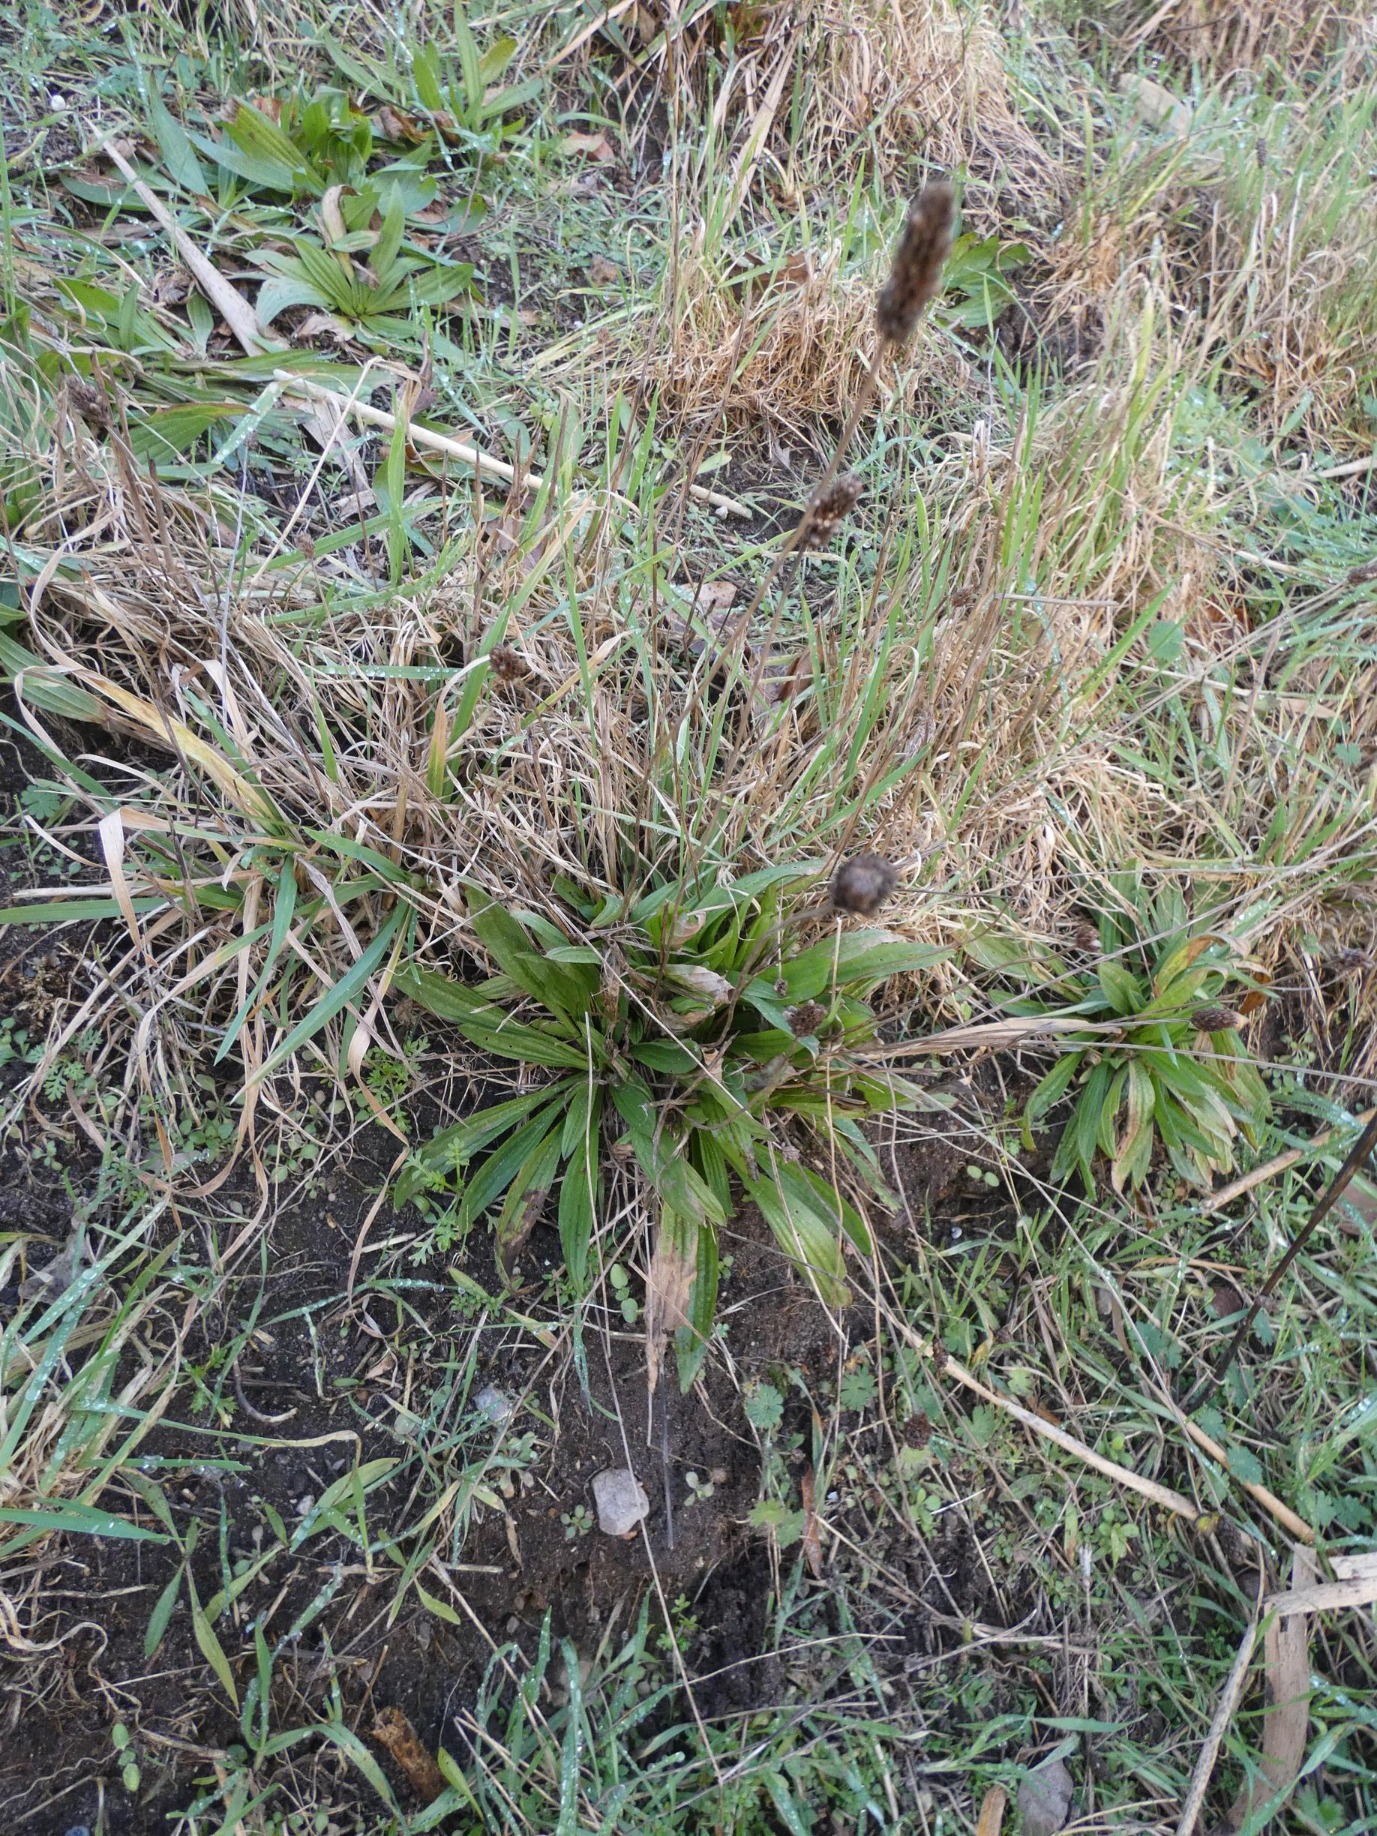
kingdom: Plantae
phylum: Tracheophyta
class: Magnoliopsida
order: Lamiales
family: Plantaginaceae
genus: Plantago
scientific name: Plantago lanceolata
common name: Lancet-vejbred
